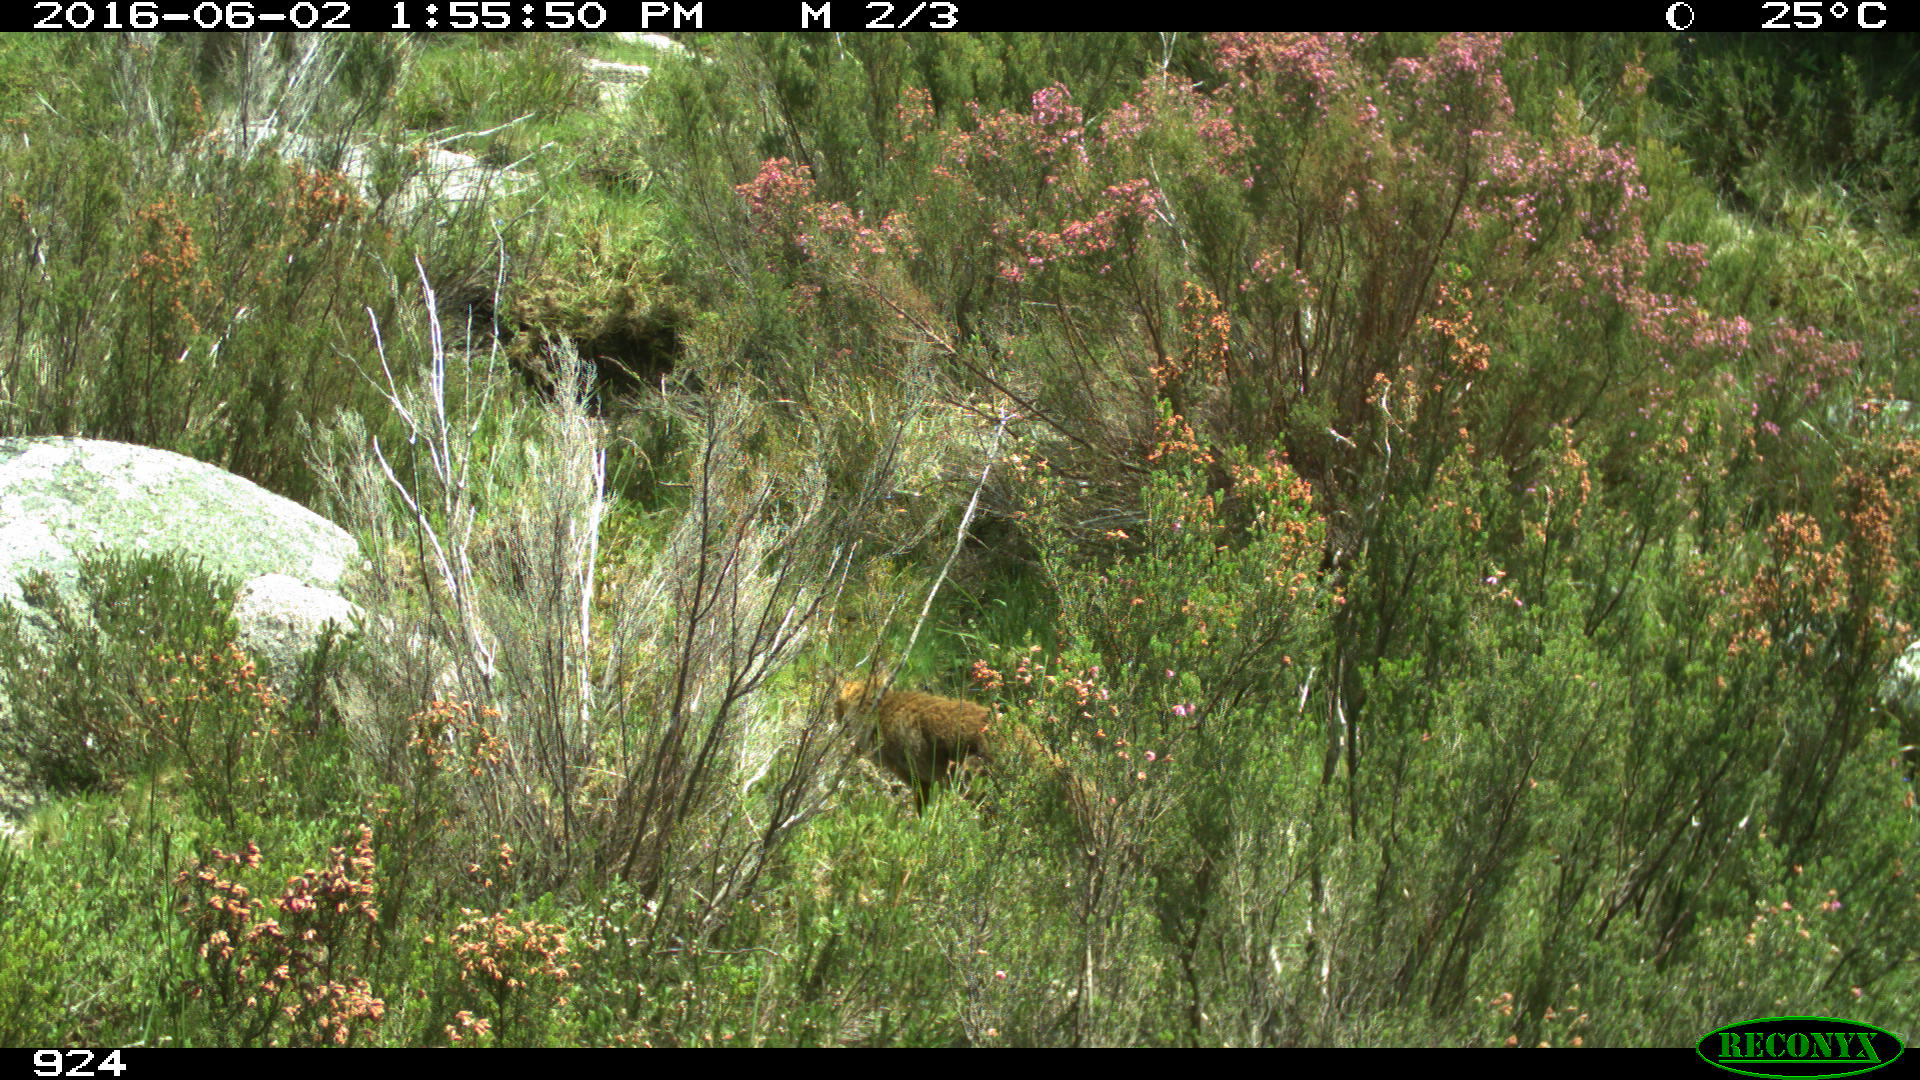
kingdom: Animalia
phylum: Chordata
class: Mammalia
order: Carnivora
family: Canidae
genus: Vulpes
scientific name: Vulpes vulpes
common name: Red fox
